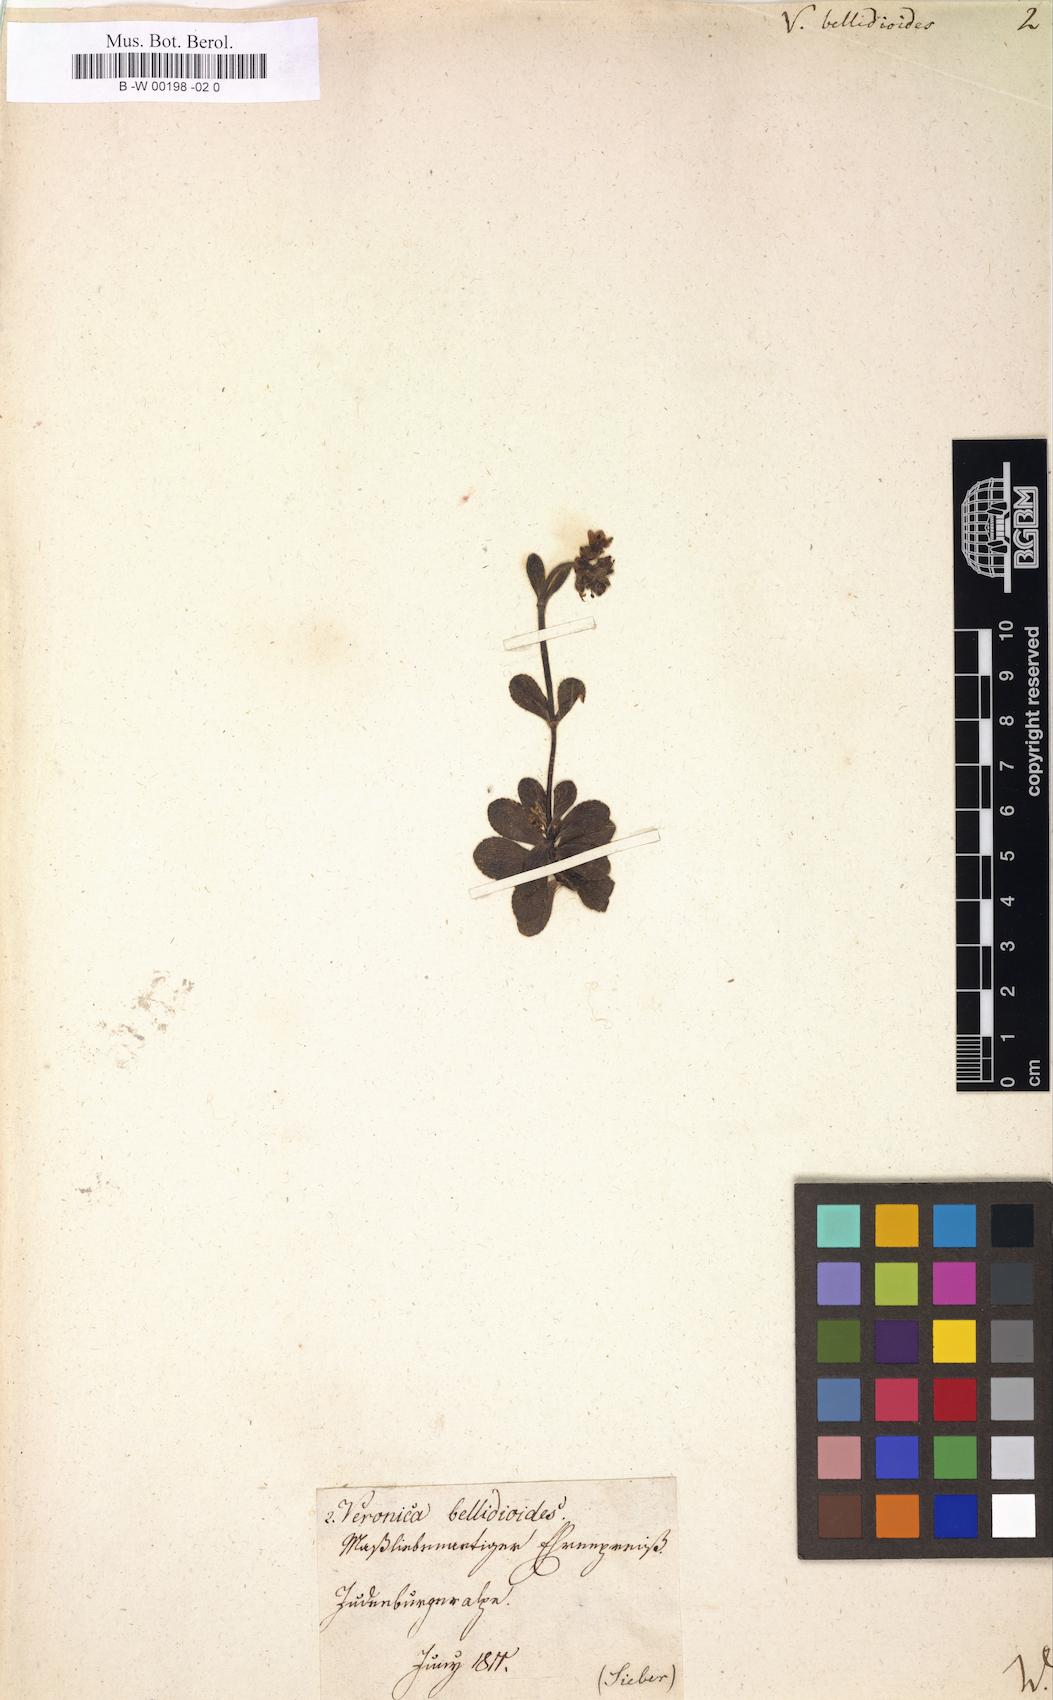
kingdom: Plantae
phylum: Tracheophyta
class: Magnoliopsida
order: Lamiales
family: Plantaginaceae
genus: Veronica
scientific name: Veronica bellidioides
